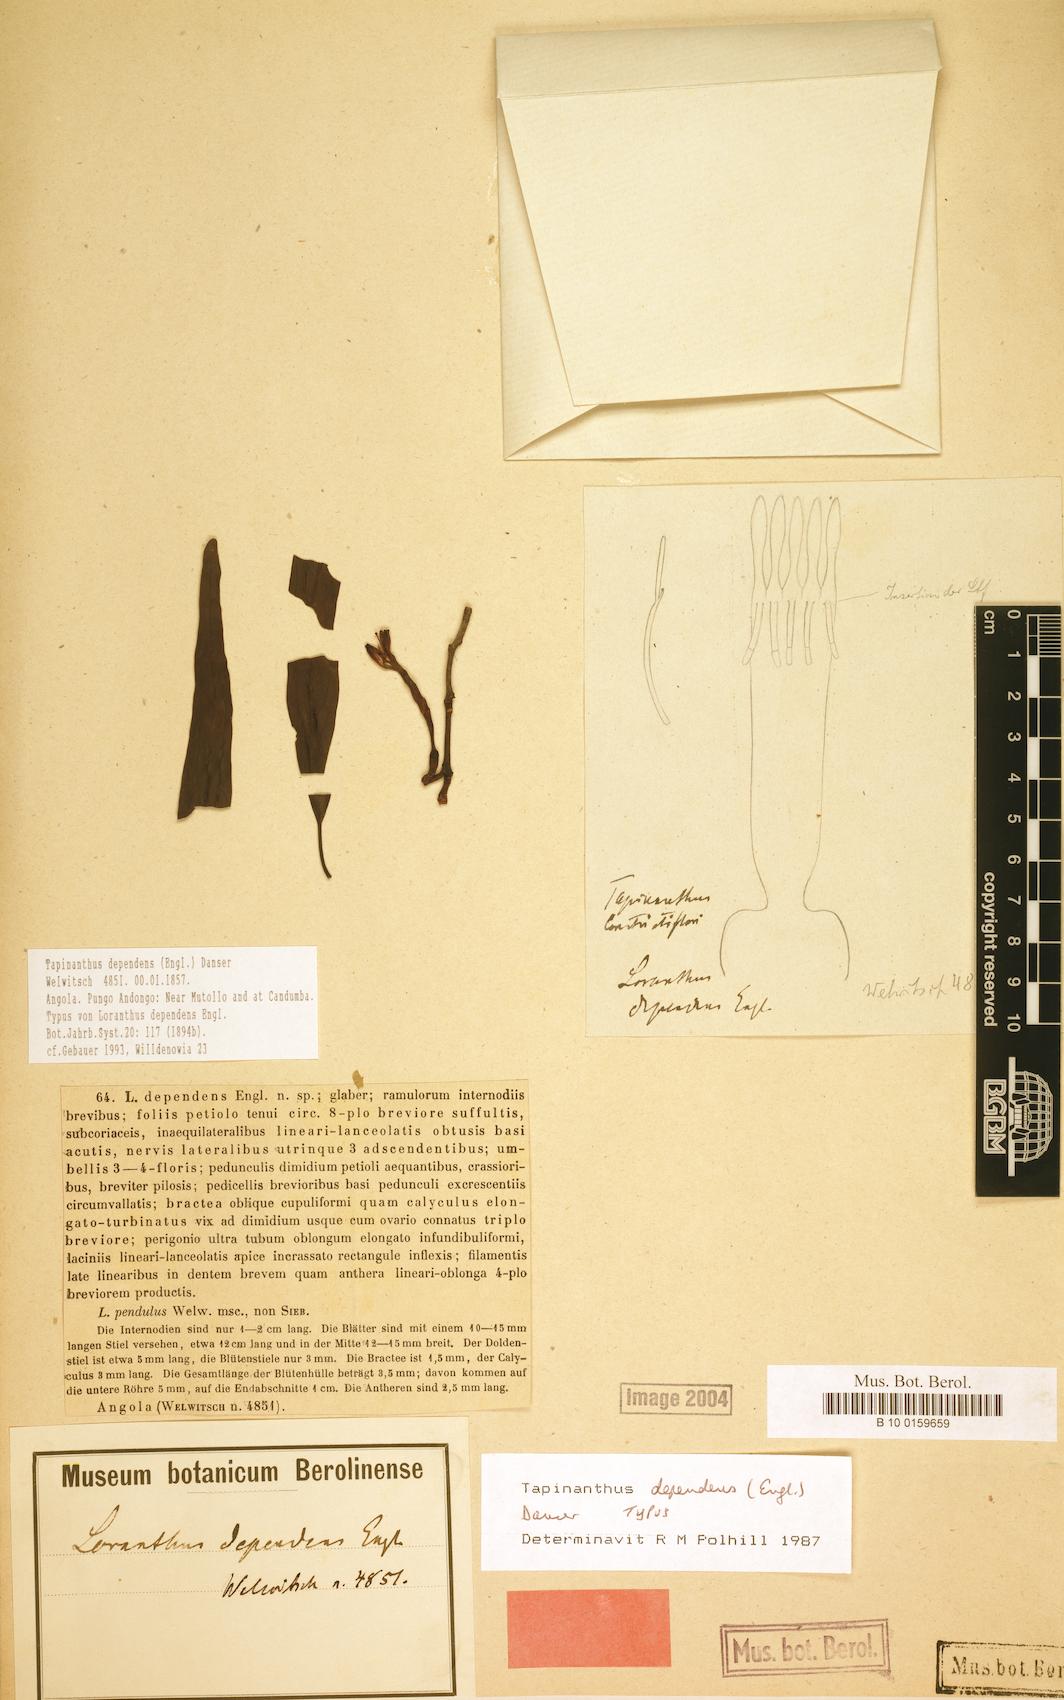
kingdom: Plantae
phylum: Tracheophyta
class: Magnoliopsida
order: Santalales
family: Loranthaceae
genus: Tapinanthus
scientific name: Tapinanthus dependens
